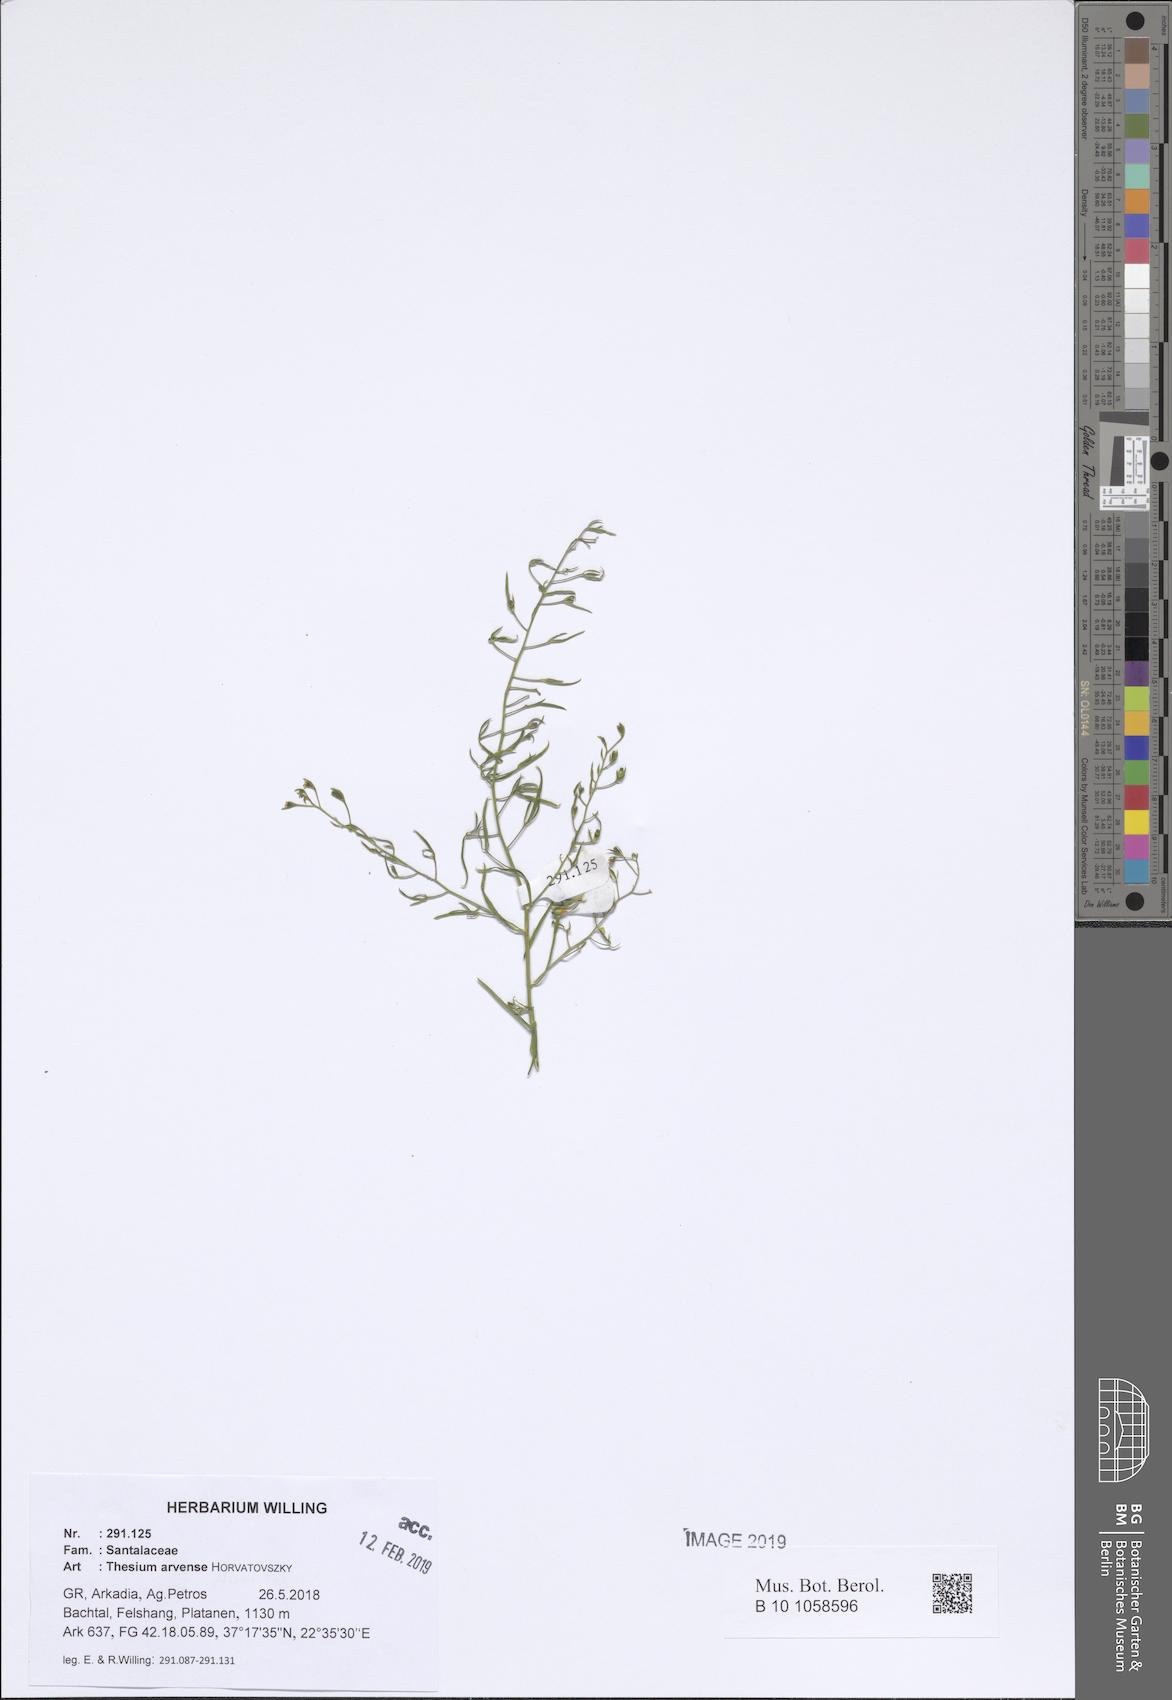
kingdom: Plantae
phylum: Tracheophyta
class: Magnoliopsida
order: Santalales
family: Thesiaceae
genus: Thesium
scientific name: Thesium
